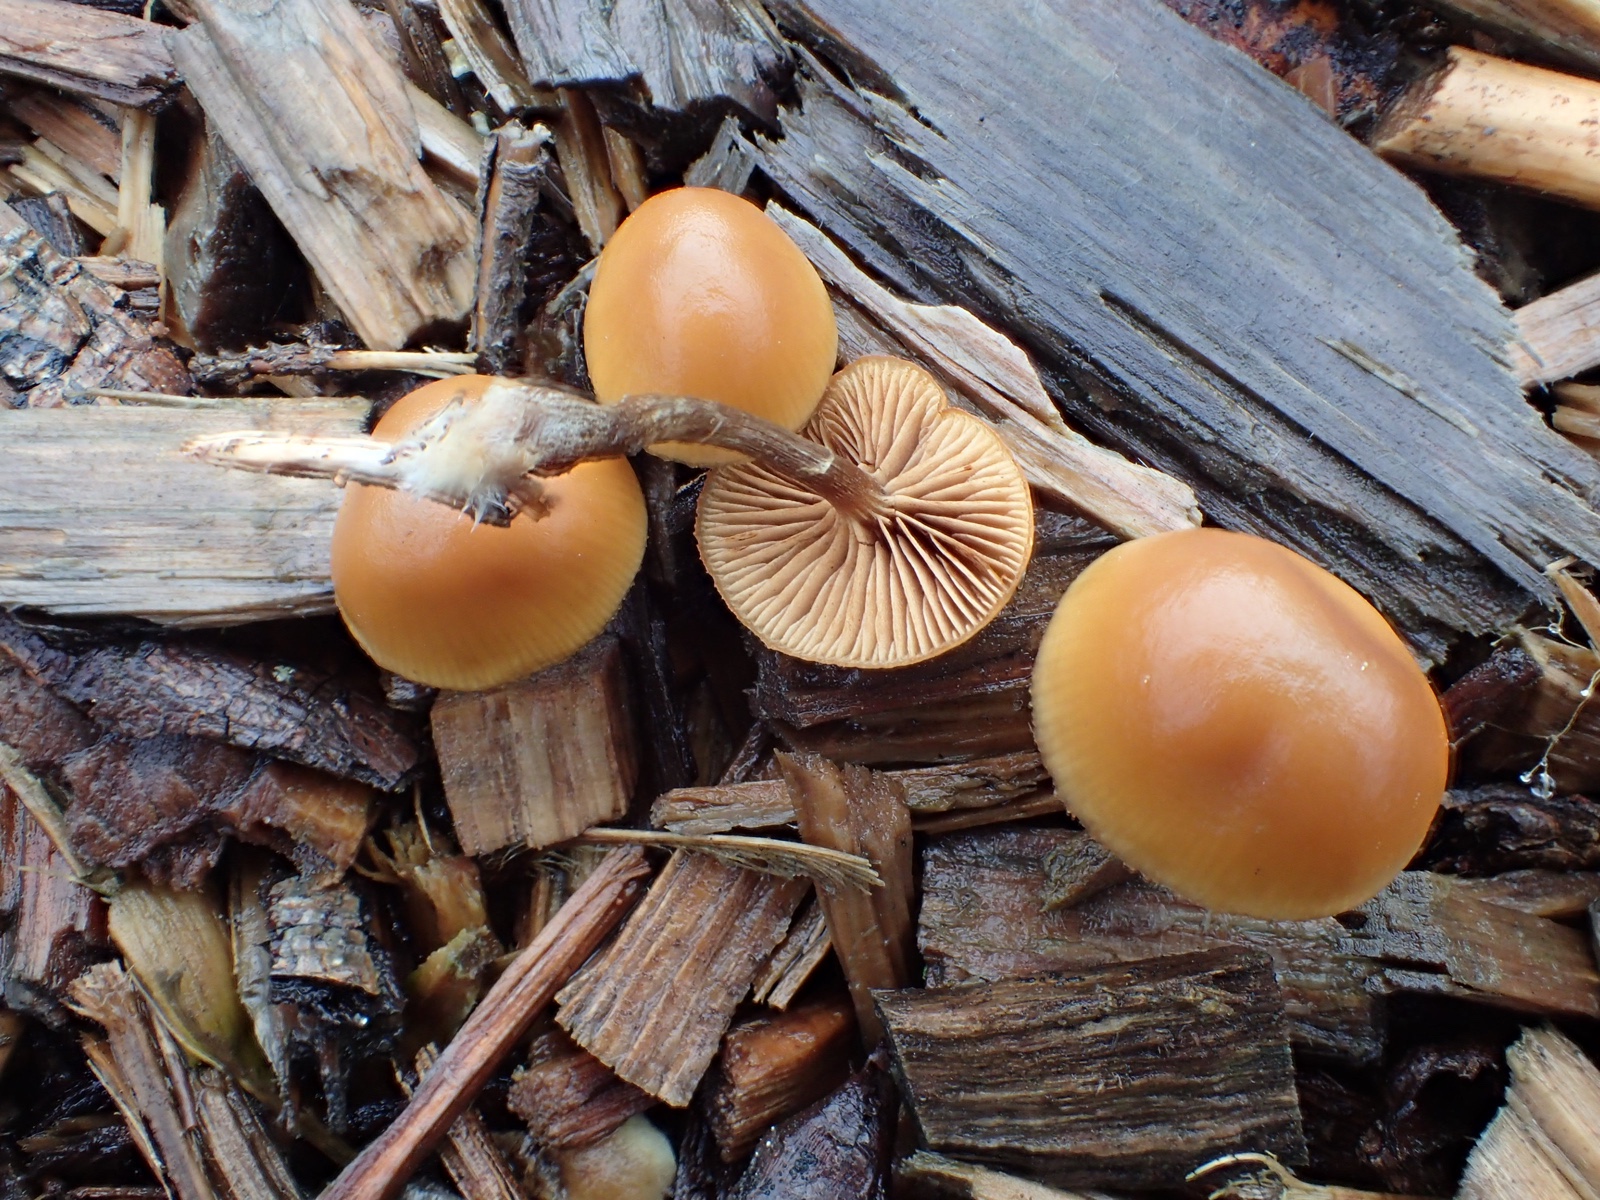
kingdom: Fungi
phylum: Basidiomycota
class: Agaricomycetes
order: Agaricales
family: Hymenogastraceae
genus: Galerina
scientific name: Galerina marginata
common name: randbæltet hjelmhat
